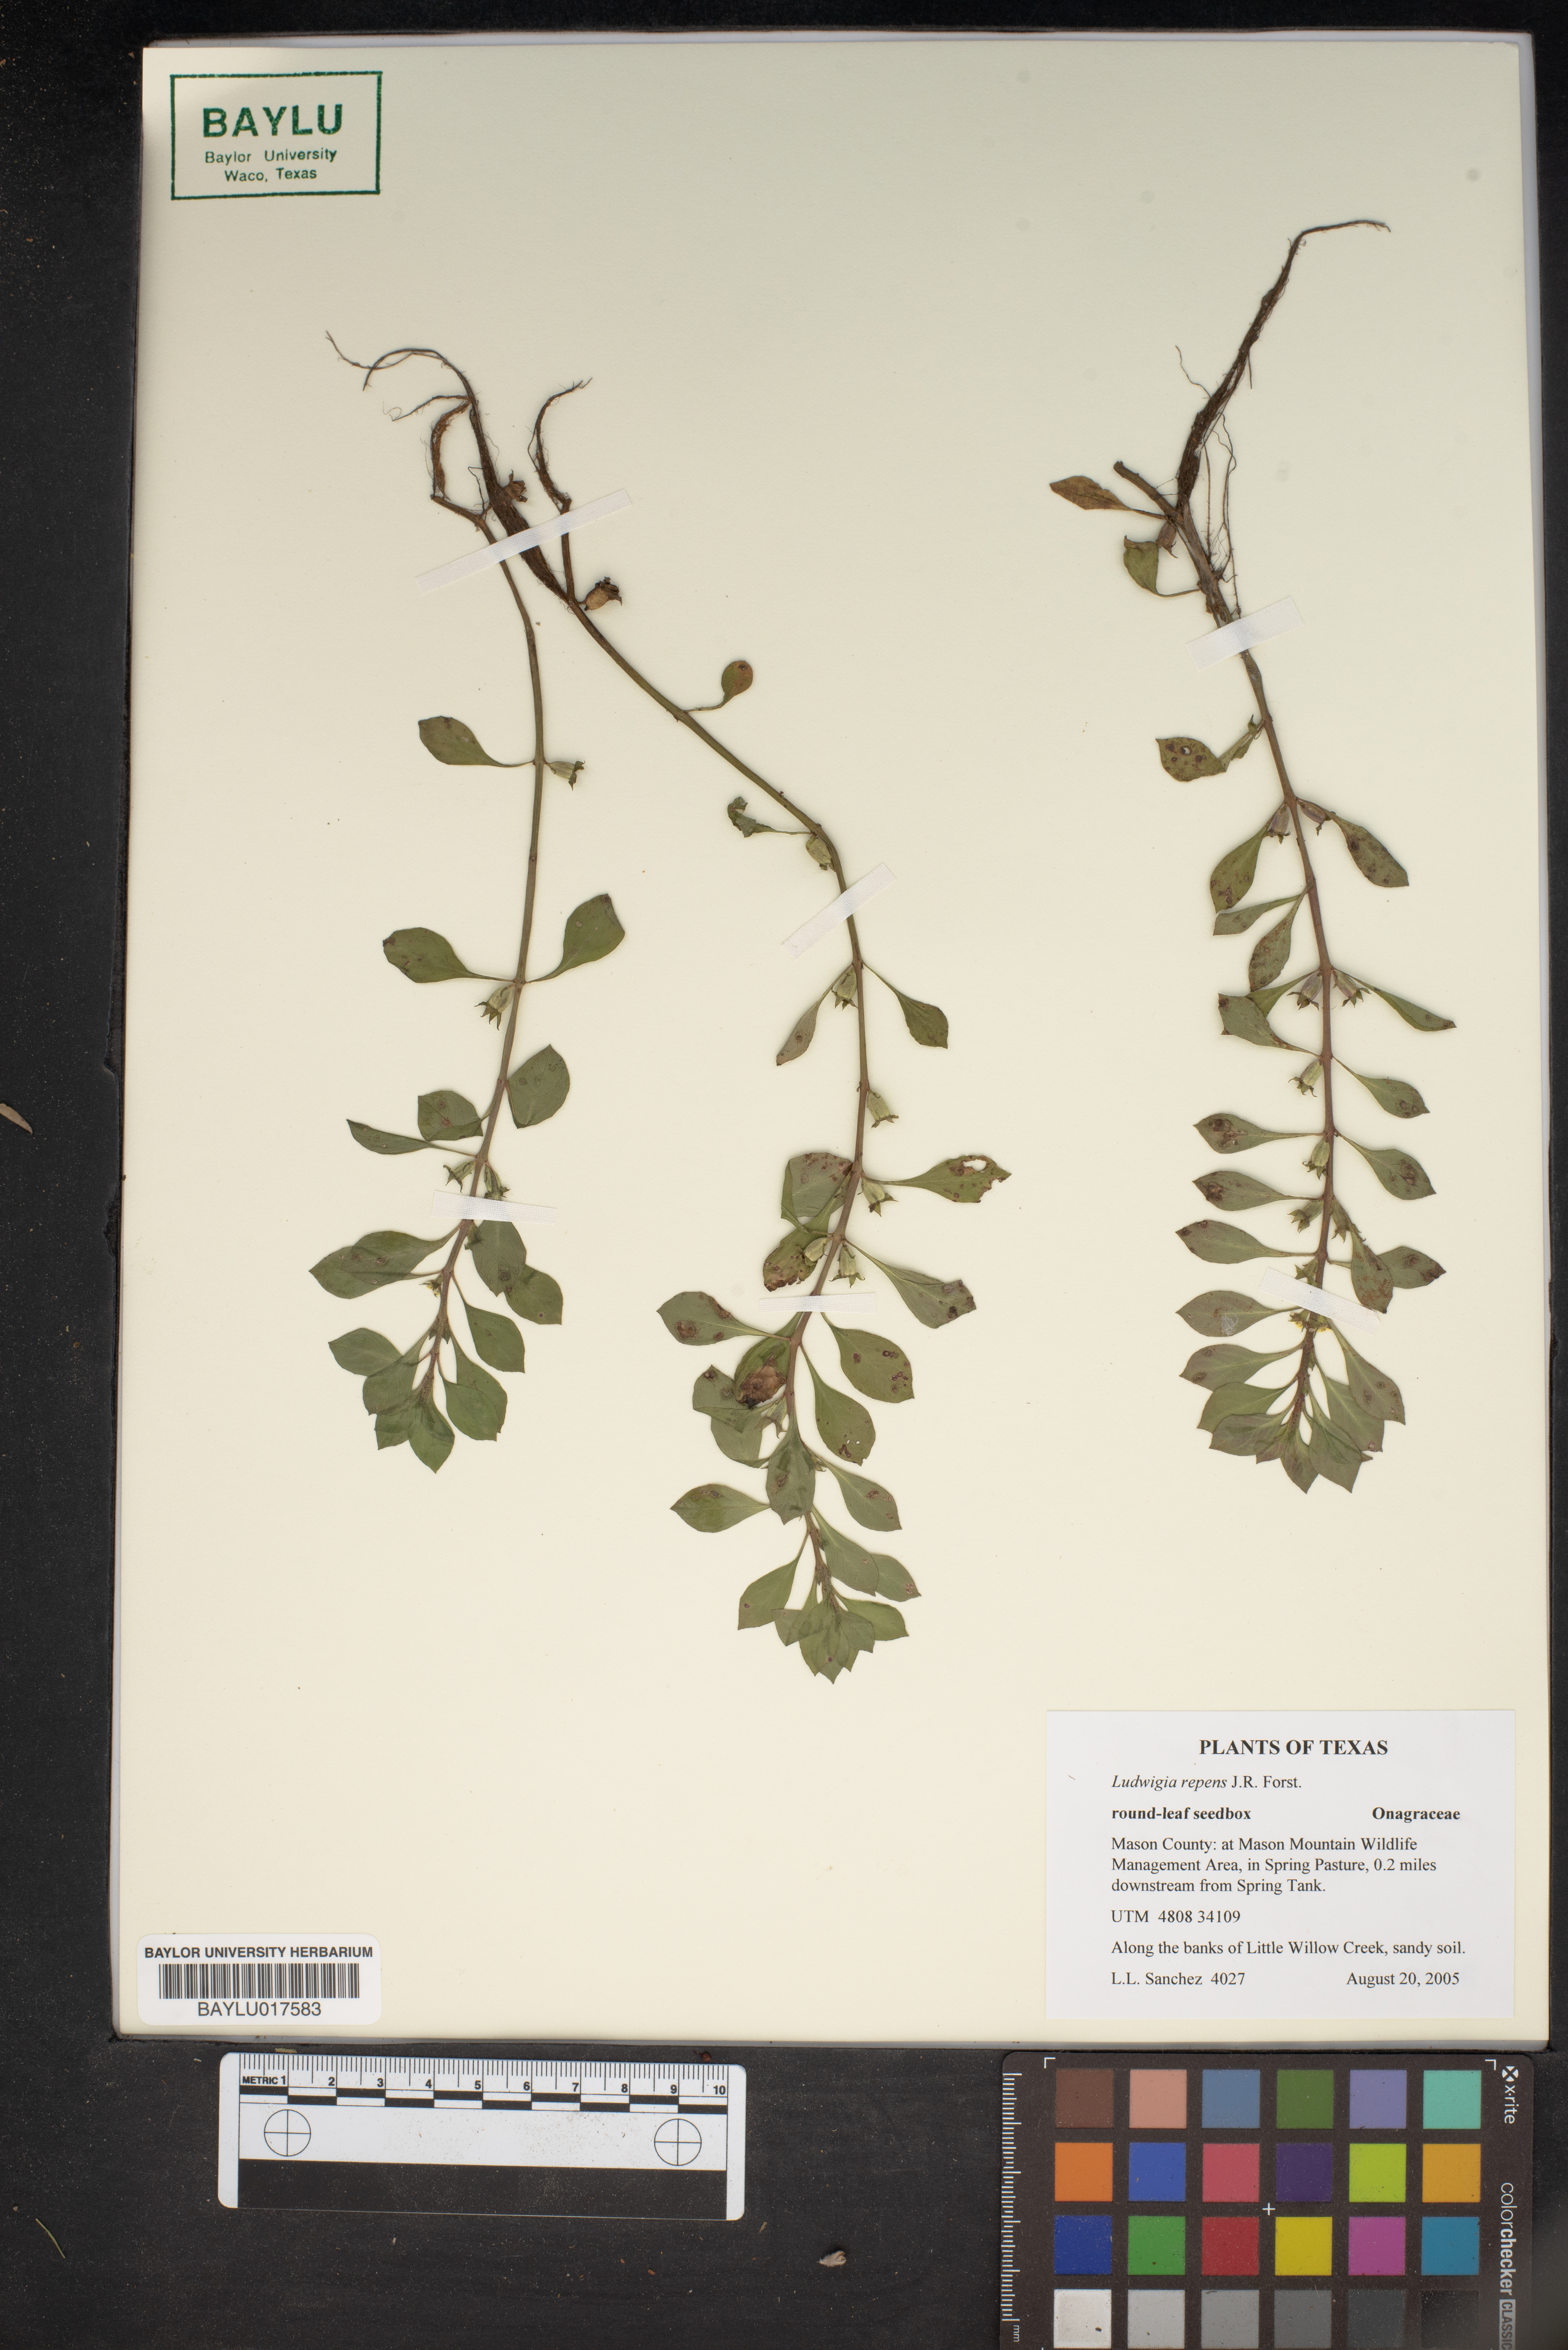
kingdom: Plantae
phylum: Tracheophyta
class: Magnoliopsida
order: Myrtales
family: Onagraceae
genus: Ludwigia
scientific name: Ludwigia repens
